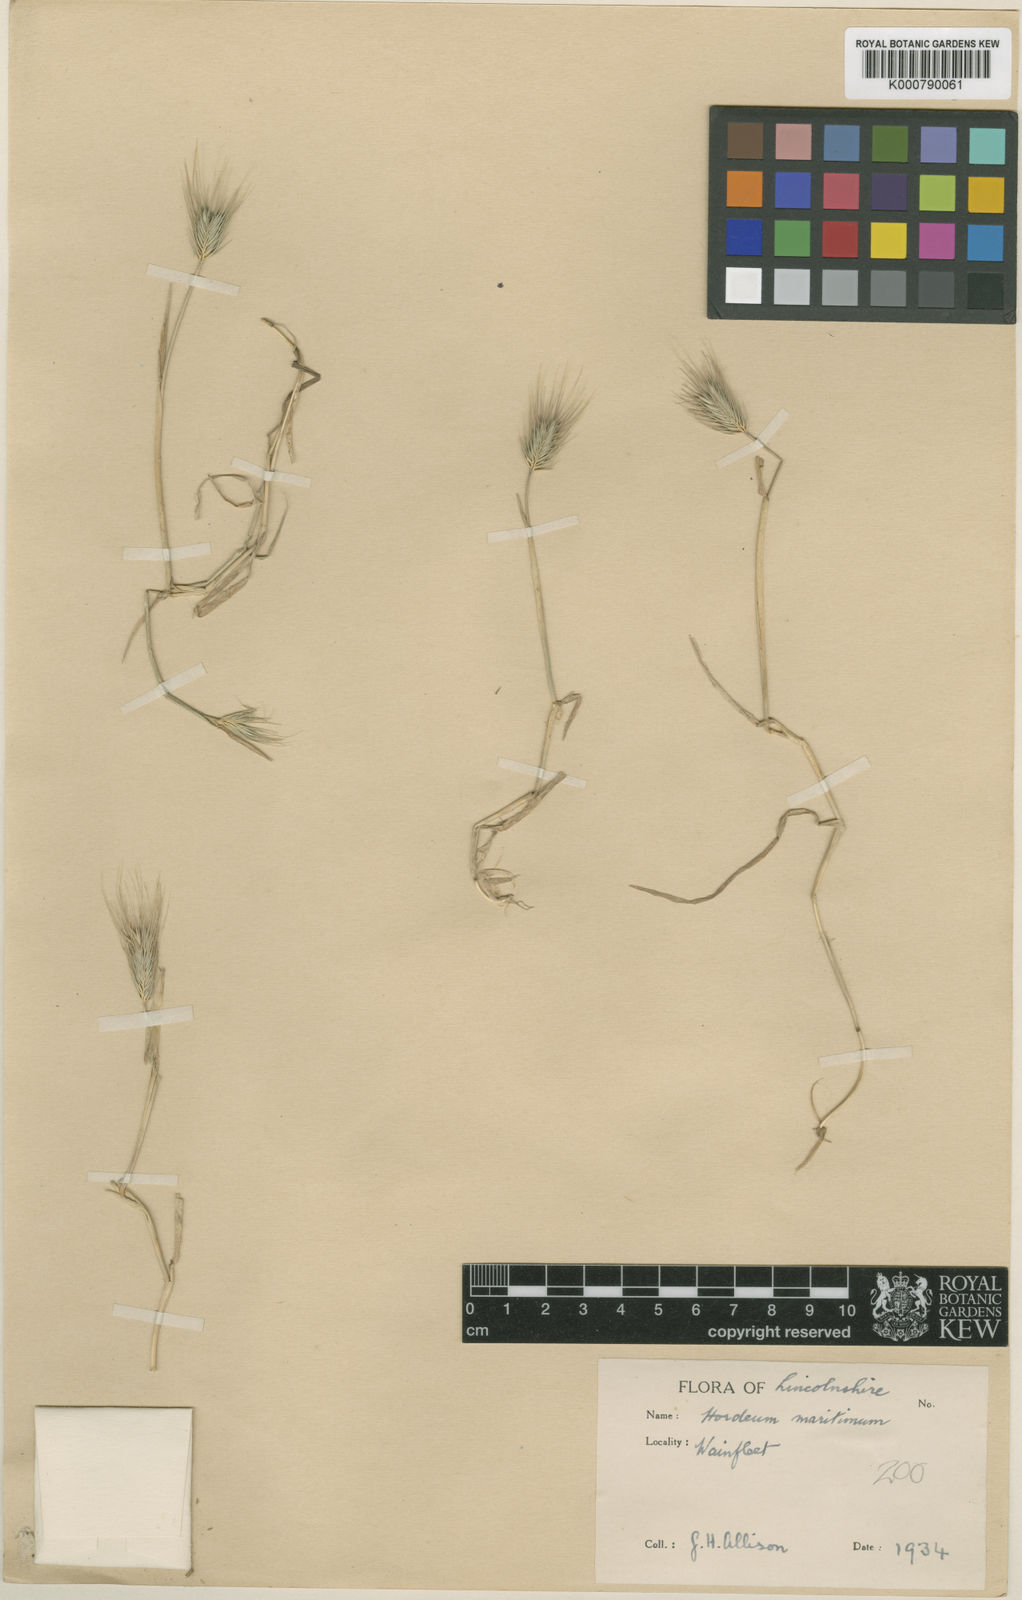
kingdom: Plantae
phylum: Tracheophyta
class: Liliopsida
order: Poales
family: Poaceae
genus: Hordeum
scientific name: Hordeum marinum
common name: Sea barley
